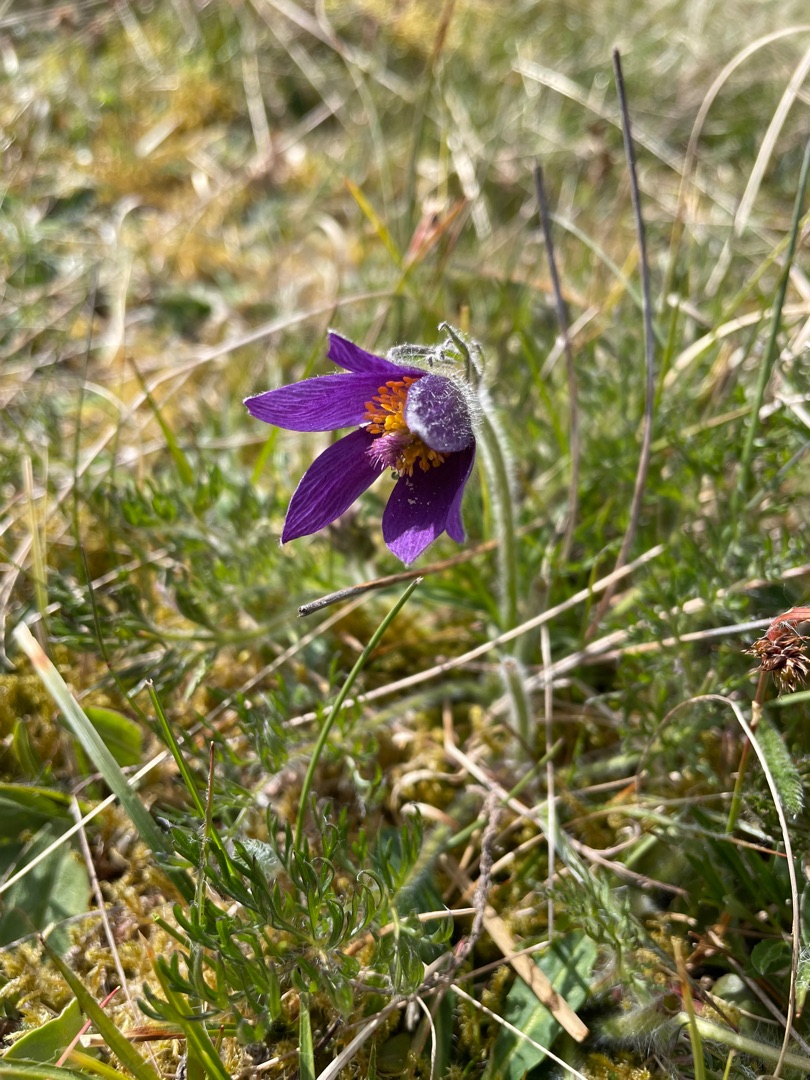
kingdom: Plantae
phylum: Tracheophyta
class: Magnoliopsida
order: Ranunculales
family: Ranunculaceae
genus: Pulsatilla
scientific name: Pulsatilla vulgaris
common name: Opret kobjælde
